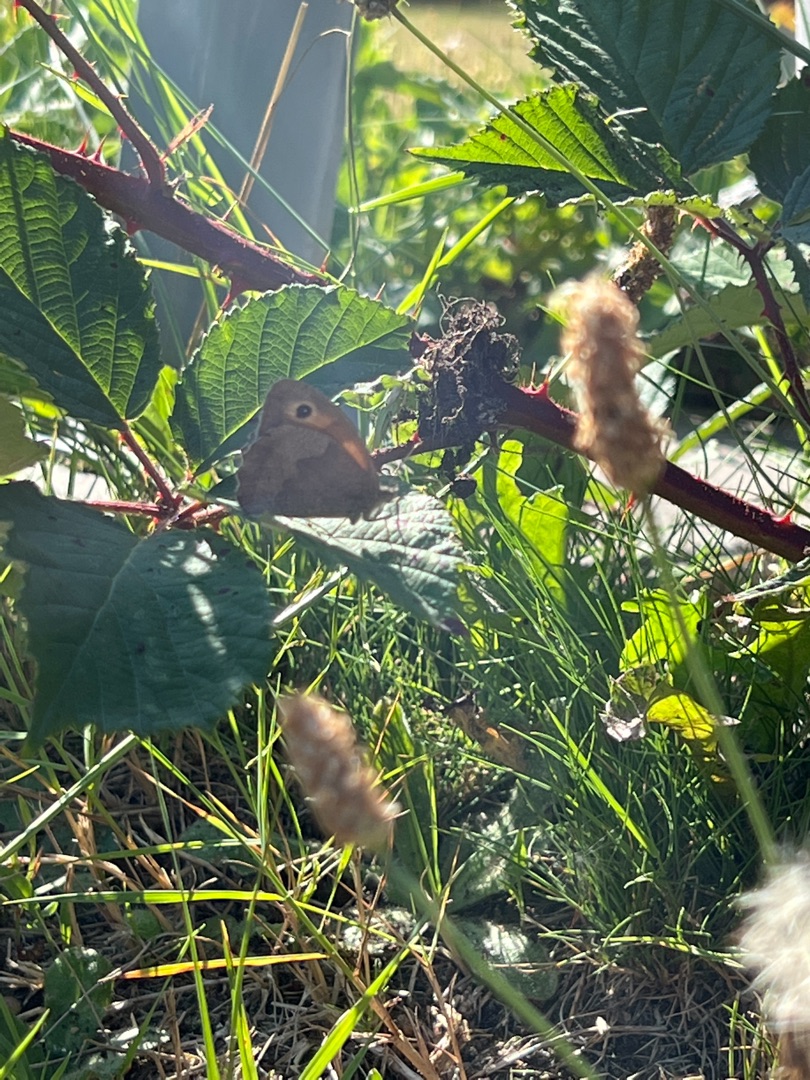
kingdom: Animalia
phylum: Arthropoda
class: Insecta
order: Lepidoptera
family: Nymphalidae
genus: Maniola
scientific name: Maniola jurtina
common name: Græsrandøje
